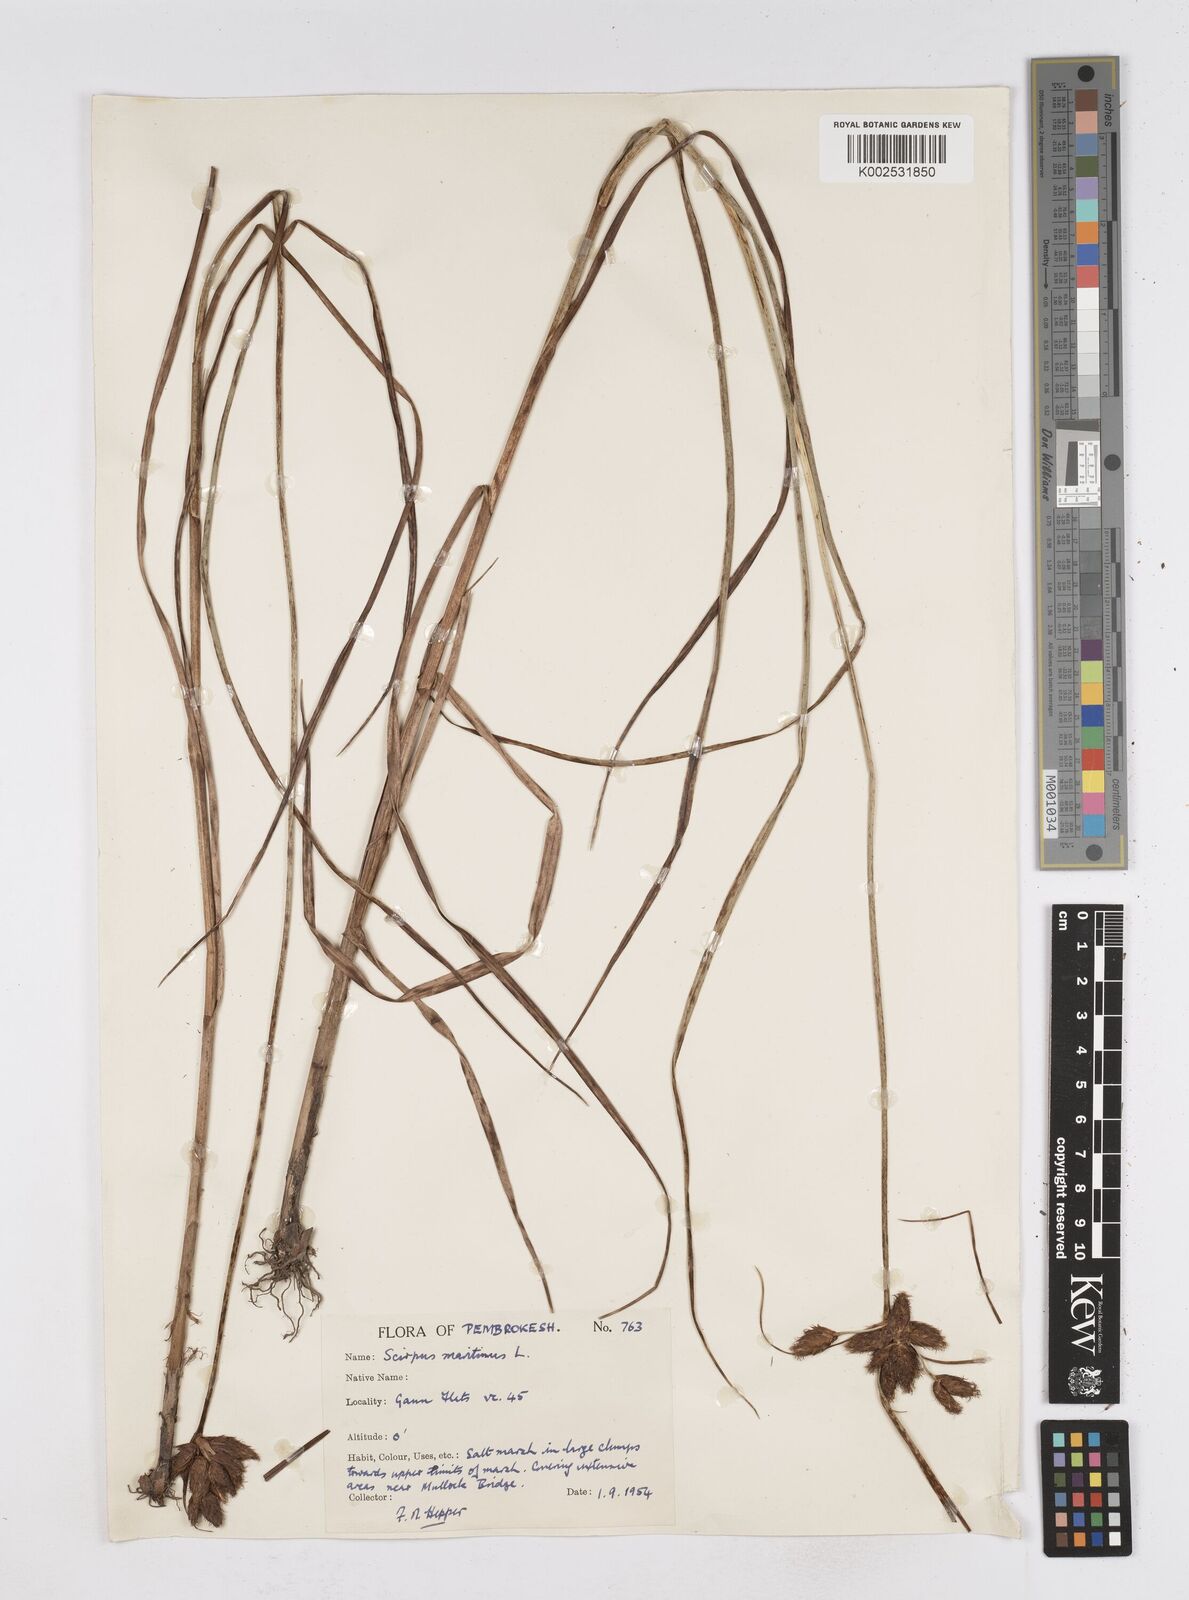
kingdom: Plantae
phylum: Tracheophyta
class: Liliopsida
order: Poales
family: Cyperaceae
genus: Bolboschoenus
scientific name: Bolboschoenus maritimus
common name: Sea club-rush
